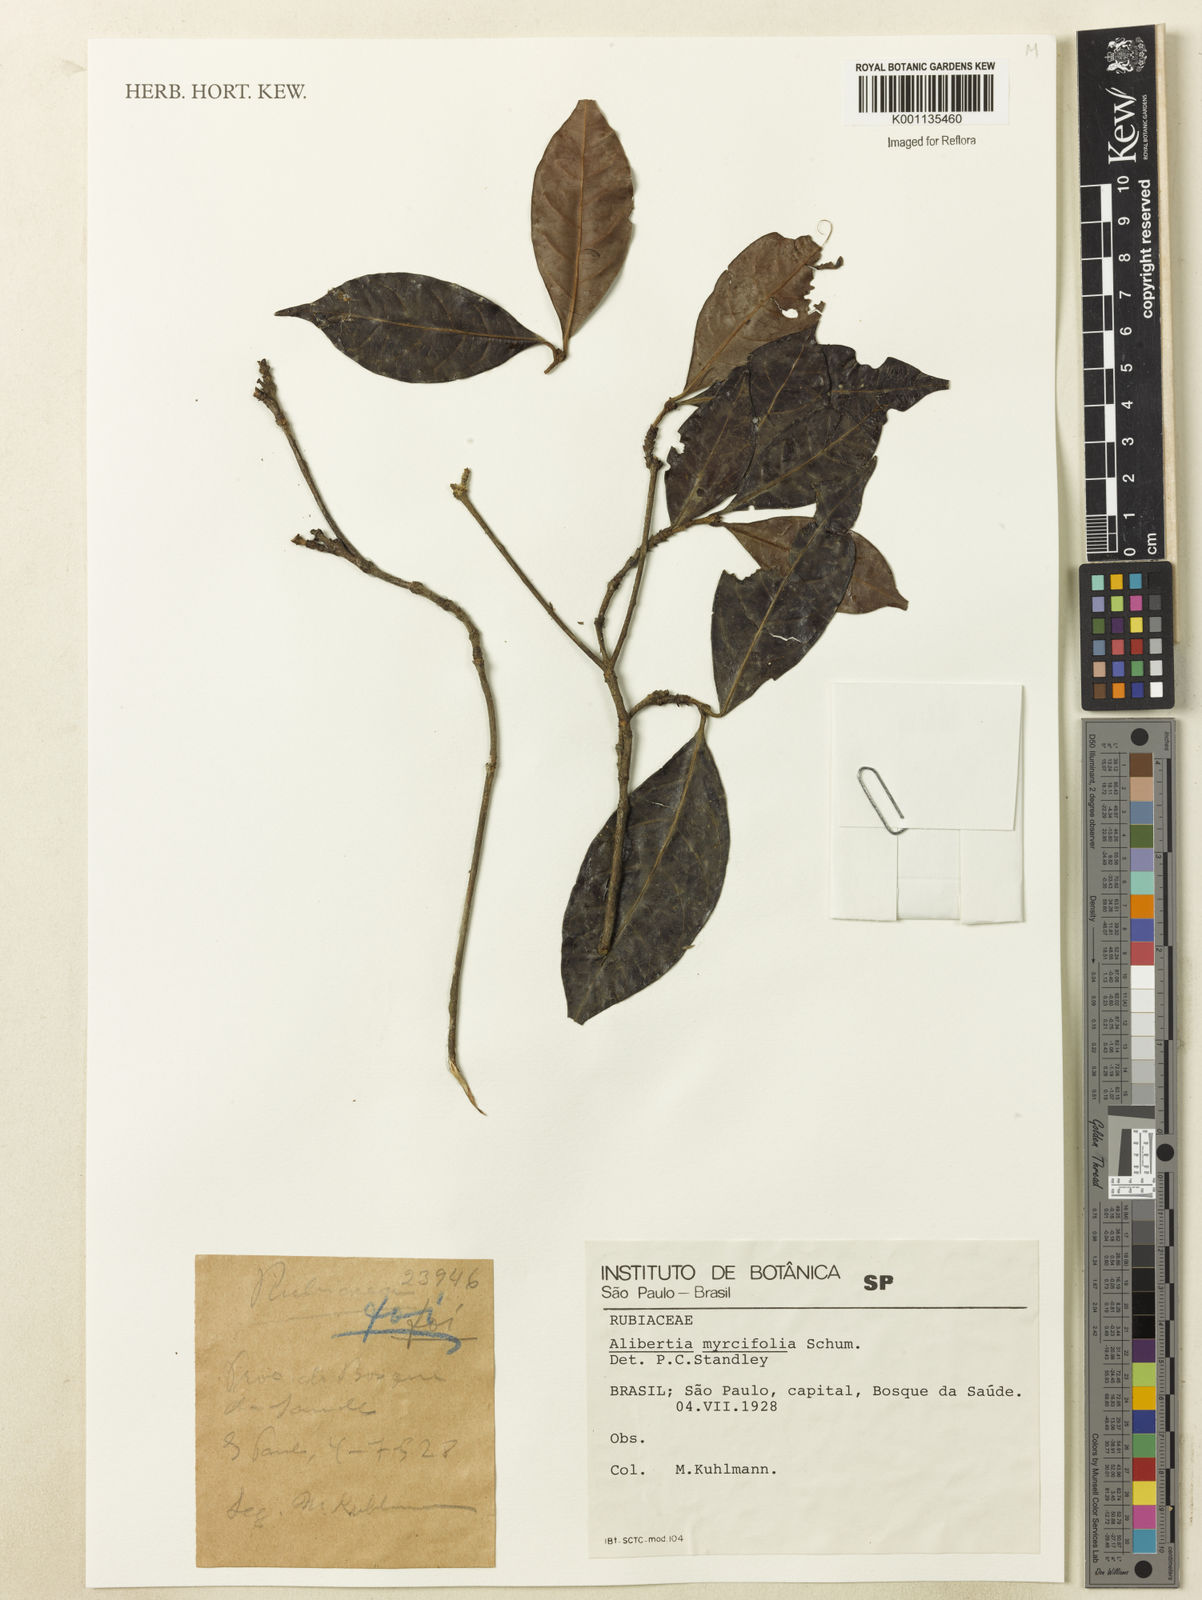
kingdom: Plantae
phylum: Tracheophyta
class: Magnoliopsida
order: Gentianales
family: Rubiaceae
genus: Cordiera
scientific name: Cordiera myrciifolia
